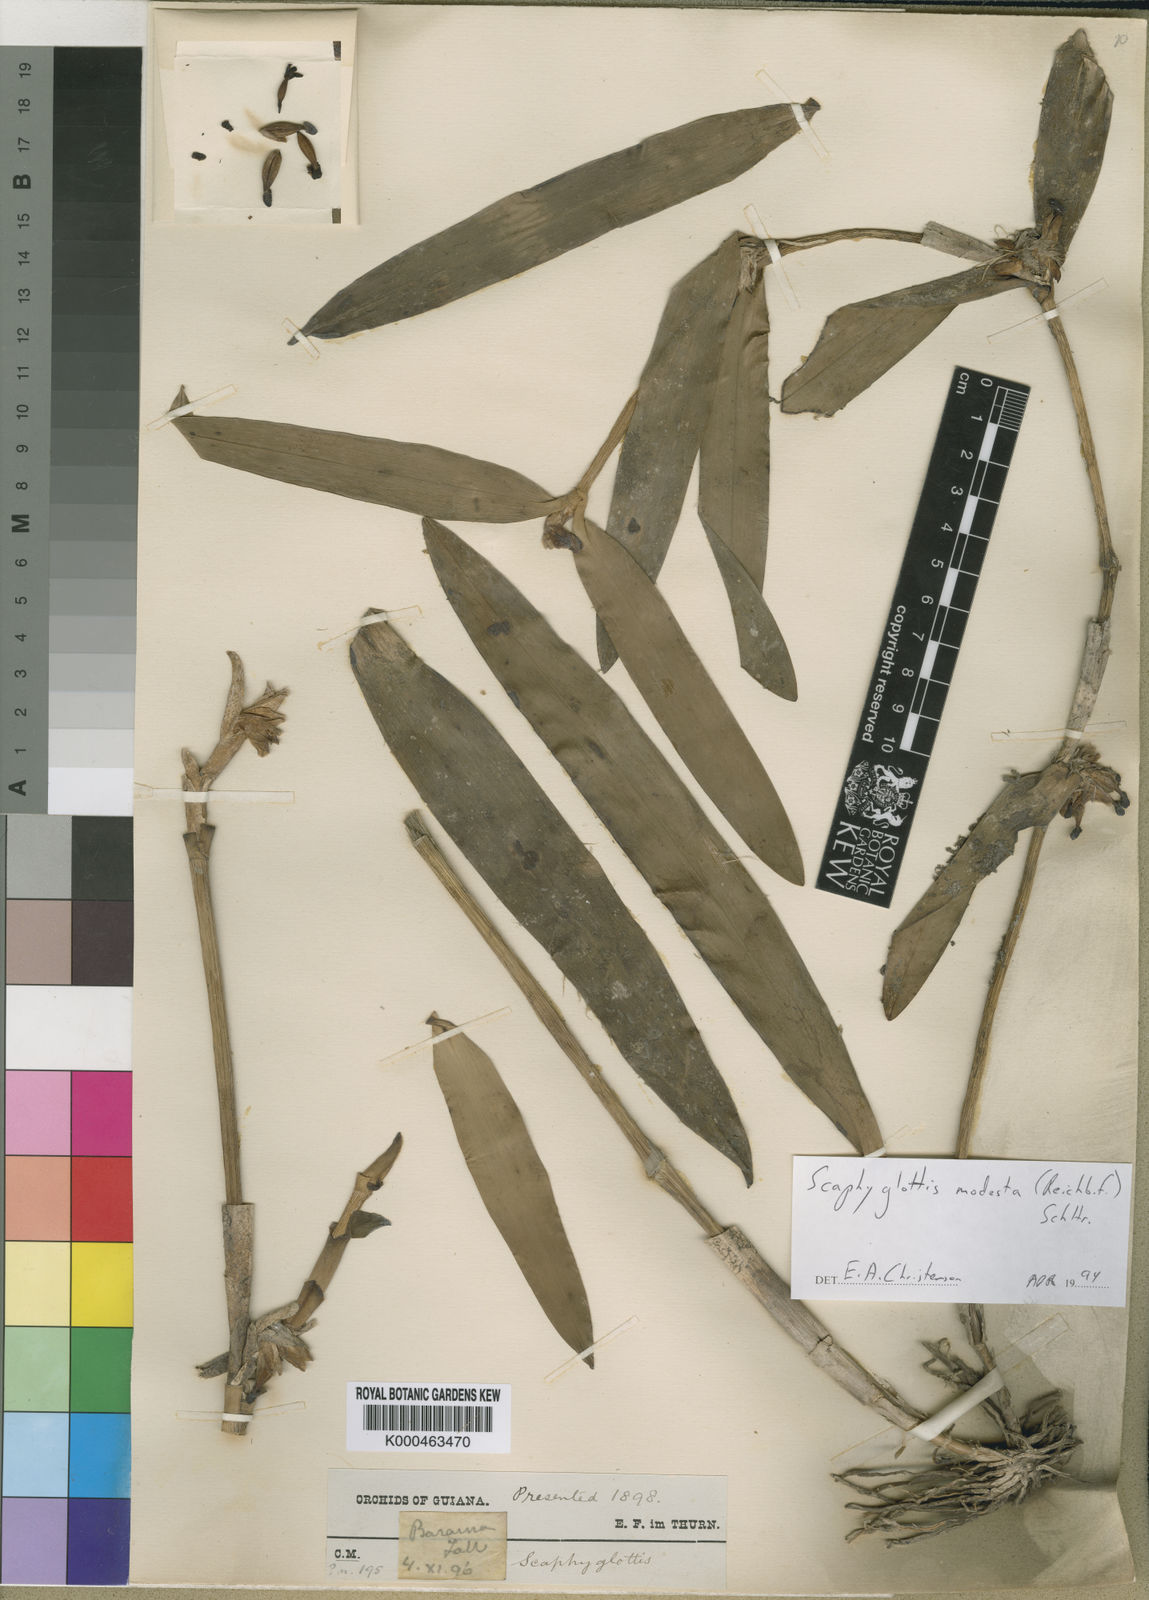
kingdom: Plantae
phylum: Tracheophyta
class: Liliopsida
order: Asparagales
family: Orchidaceae
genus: Scaphyglottis
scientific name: Scaphyglottis modesta
